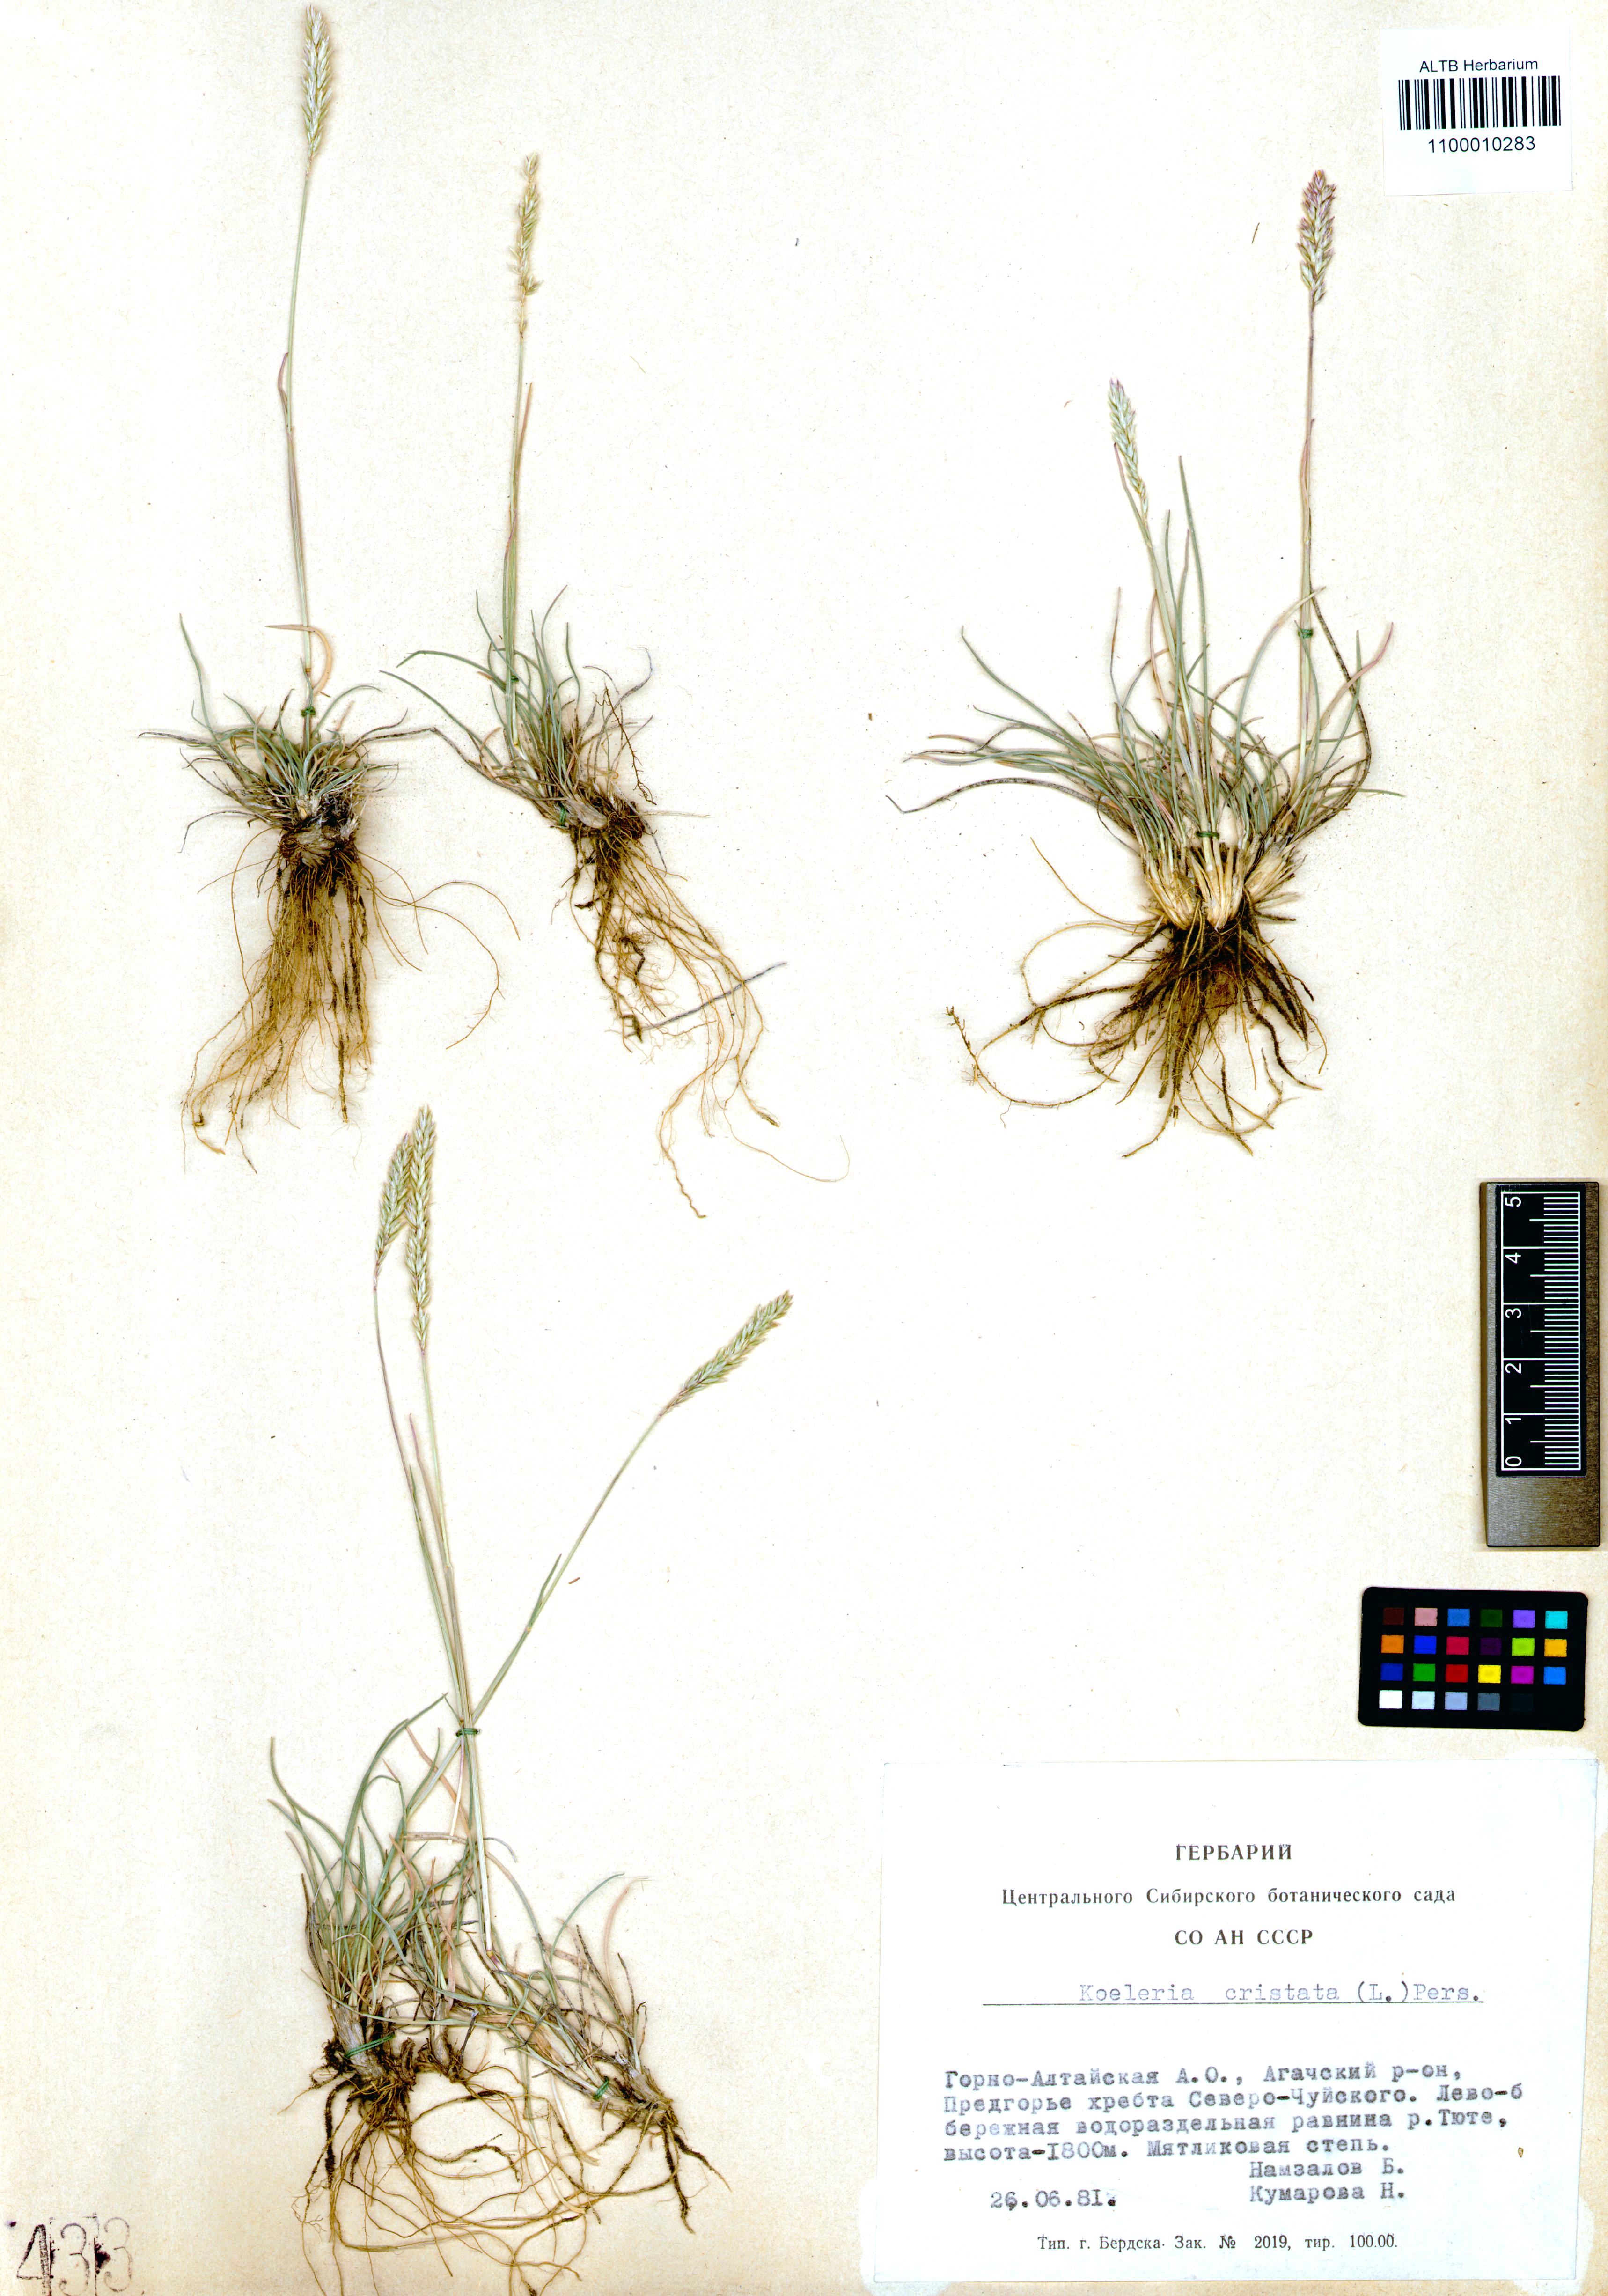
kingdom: Plantae
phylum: Tracheophyta
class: Liliopsida
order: Poales
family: Poaceae
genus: Koeleria
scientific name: Koeleria pyramidata
